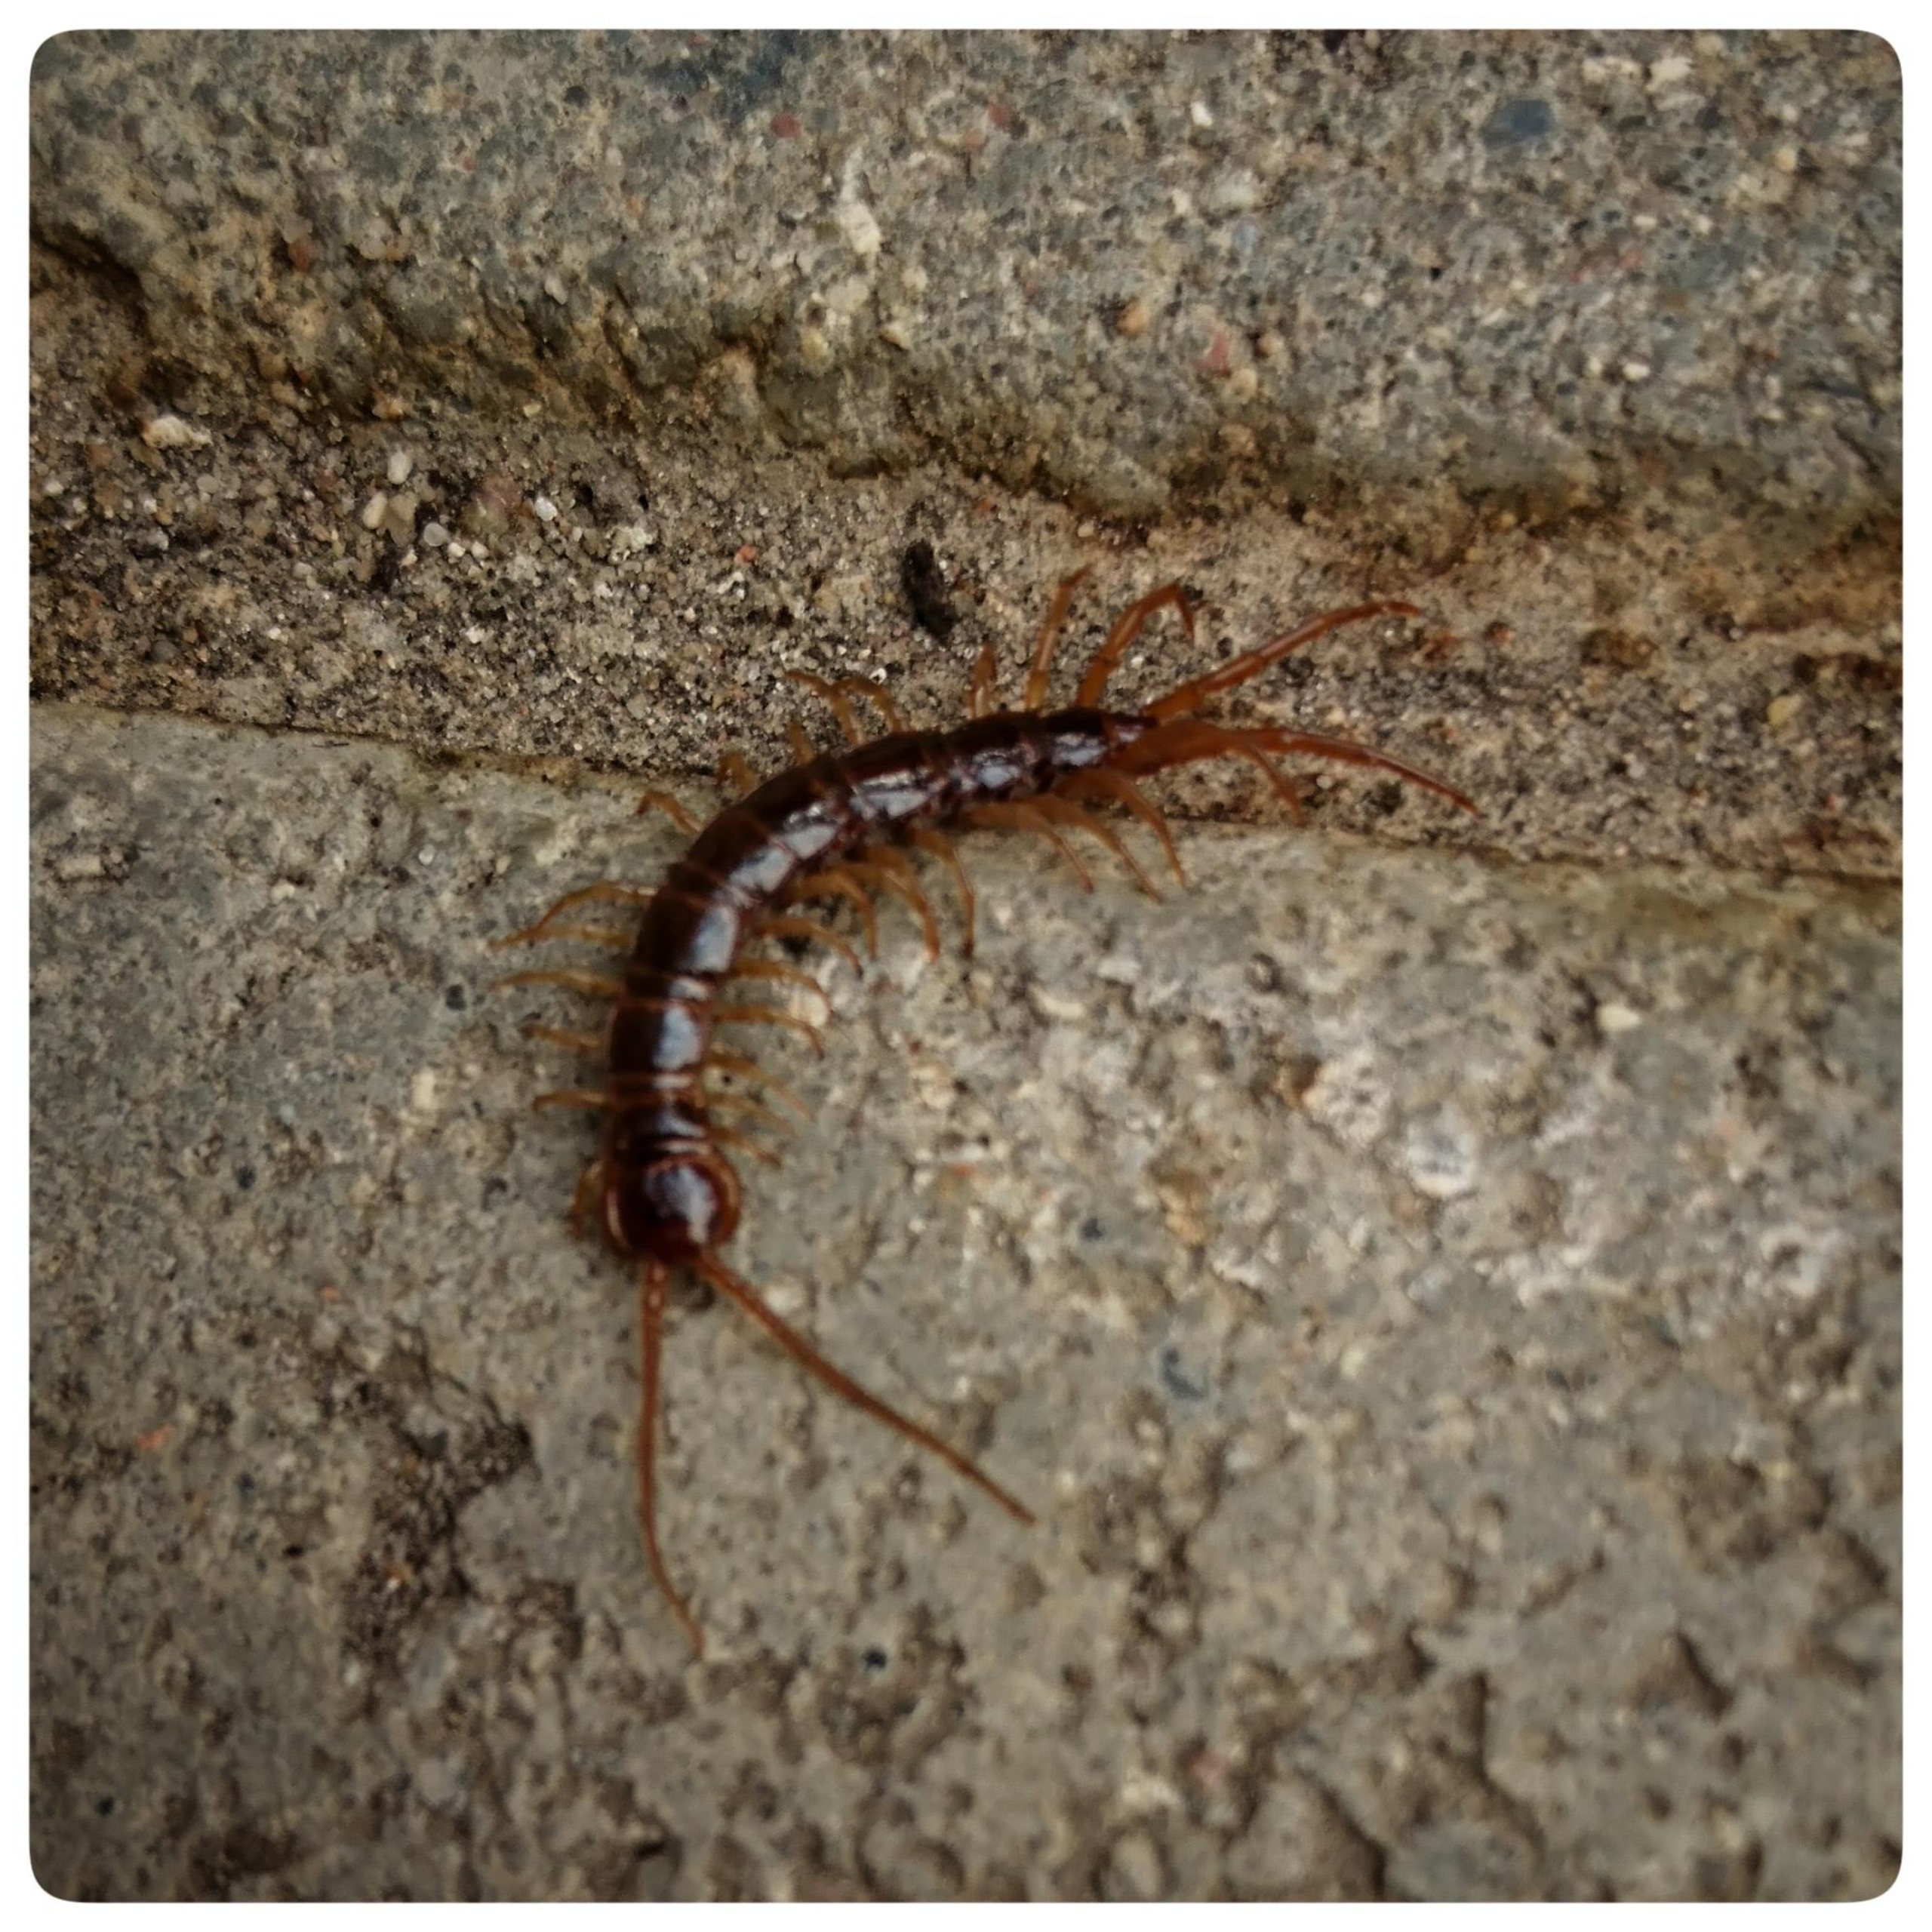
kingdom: Animalia
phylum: Arthropoda
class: Chilopoda
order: Lithobiomorpha
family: Lithobiidae
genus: Lithobius
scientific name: Lithobius forficatus
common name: Stenskolopender
